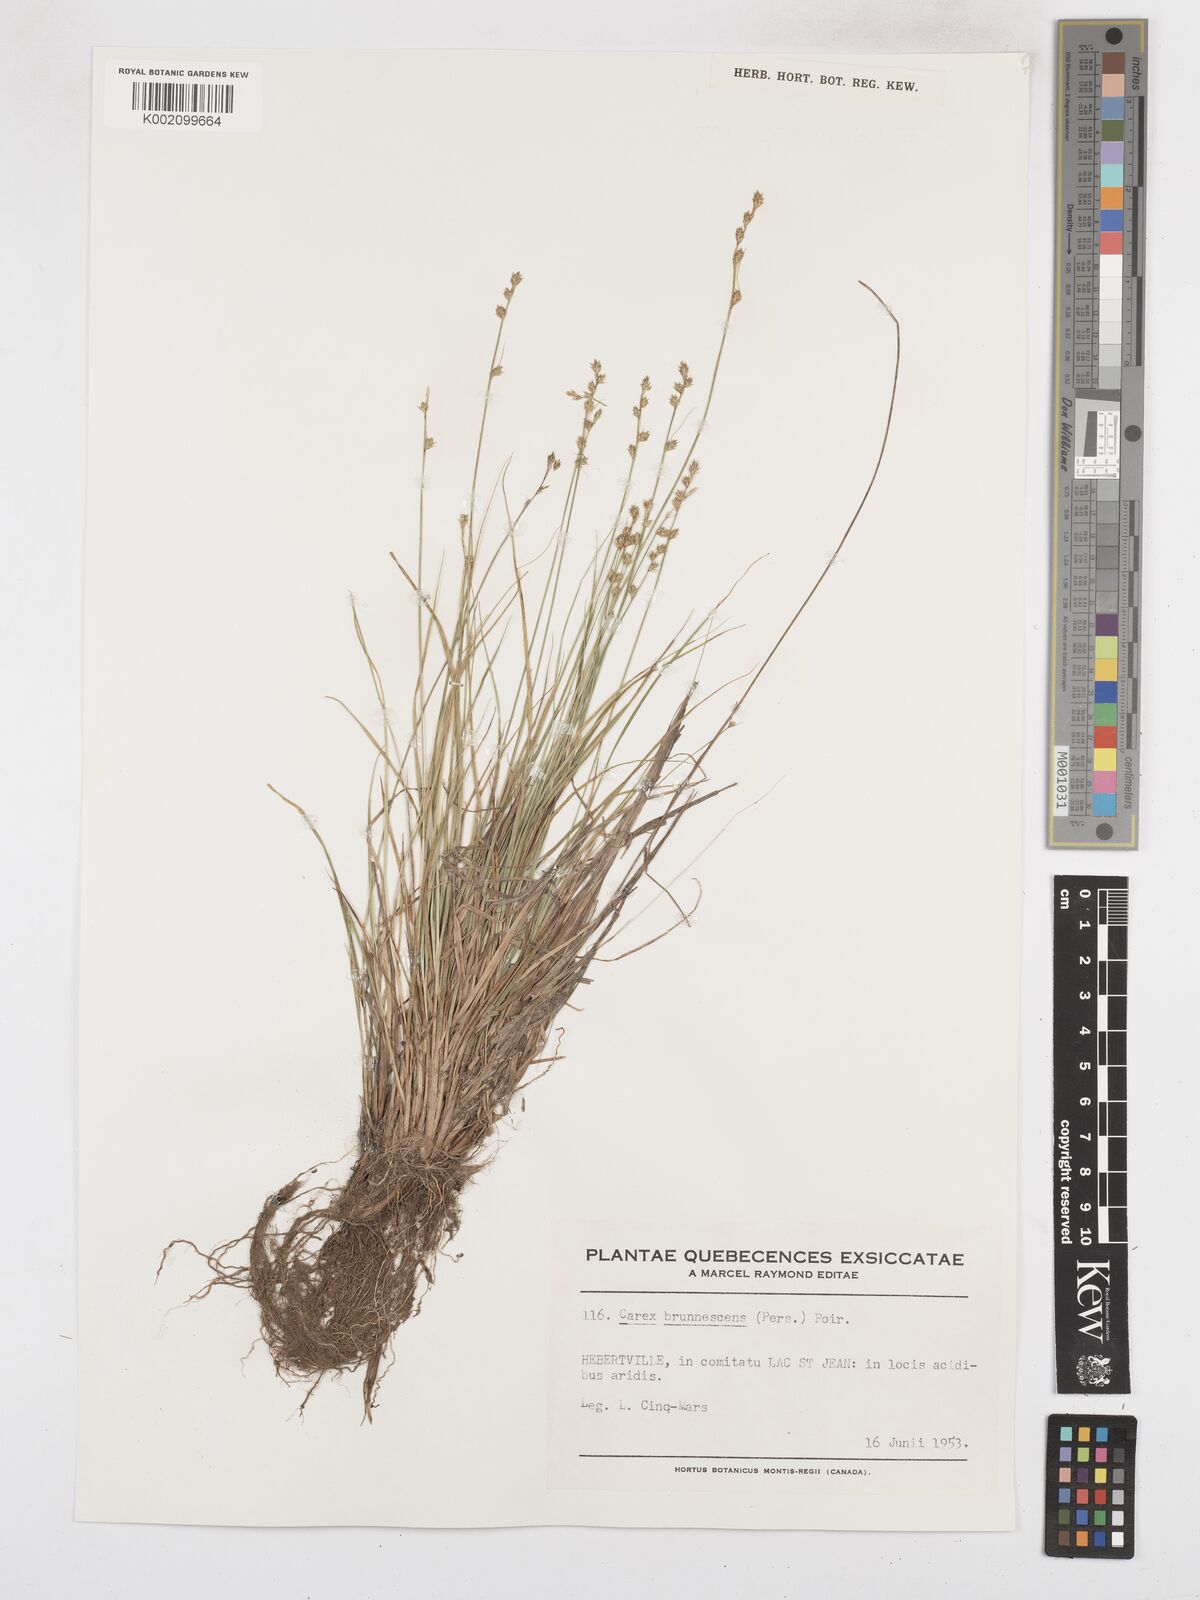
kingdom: Plantae
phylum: Tracheophyta
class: Liliopsida
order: Poales
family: Cyperaceae
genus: Carex
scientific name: Carex brunnescens
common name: Brown sedge
